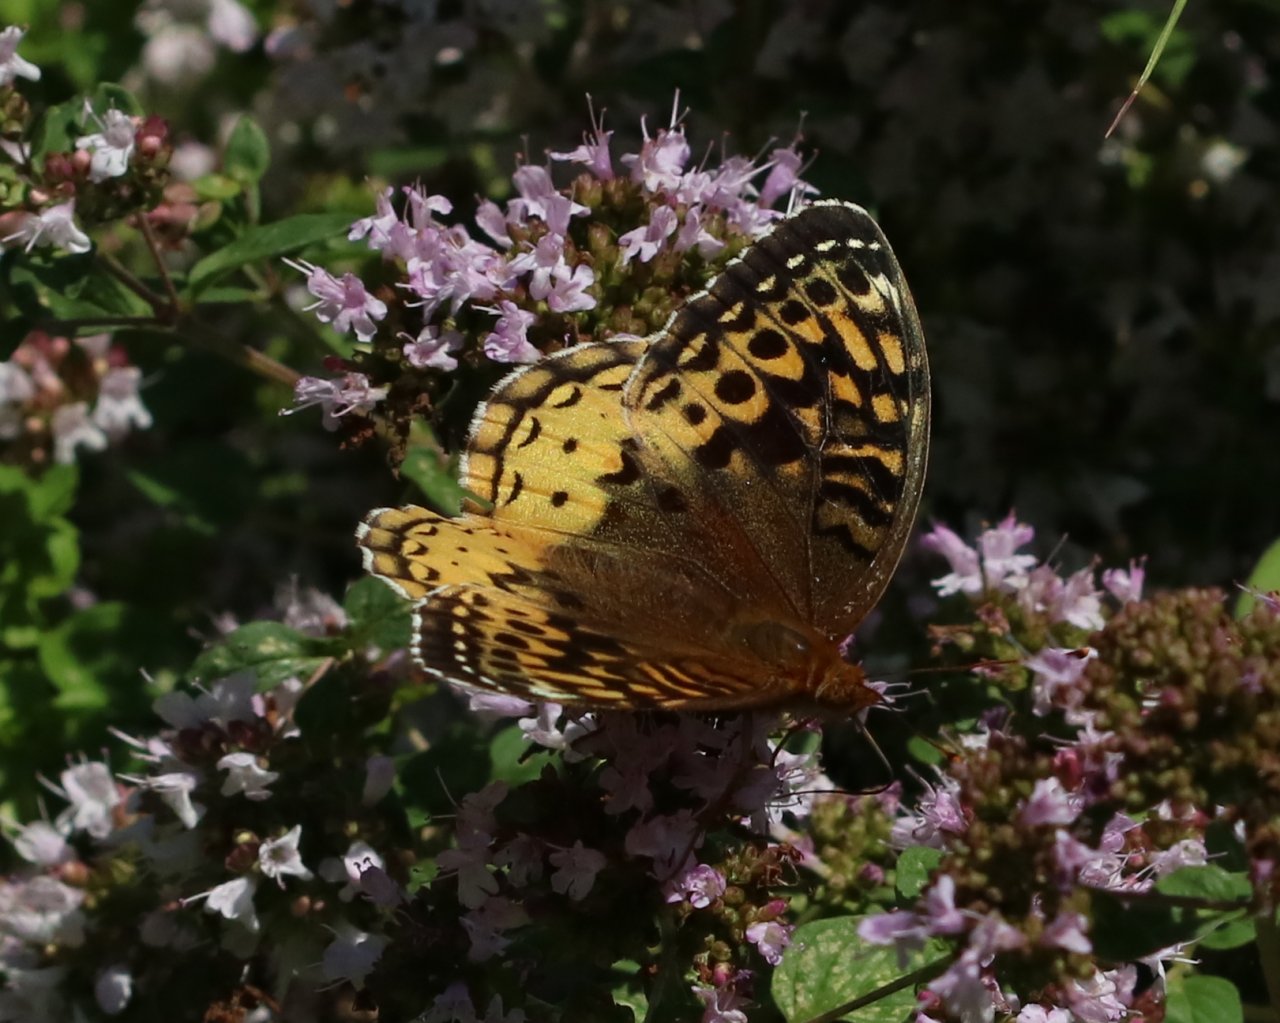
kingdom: Animalia
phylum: Arthropoda
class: Insecta
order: Lepidoptera
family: Nymphalidae
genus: Speyeria
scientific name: Speyeria cybele
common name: Great Spangled Fritillary
